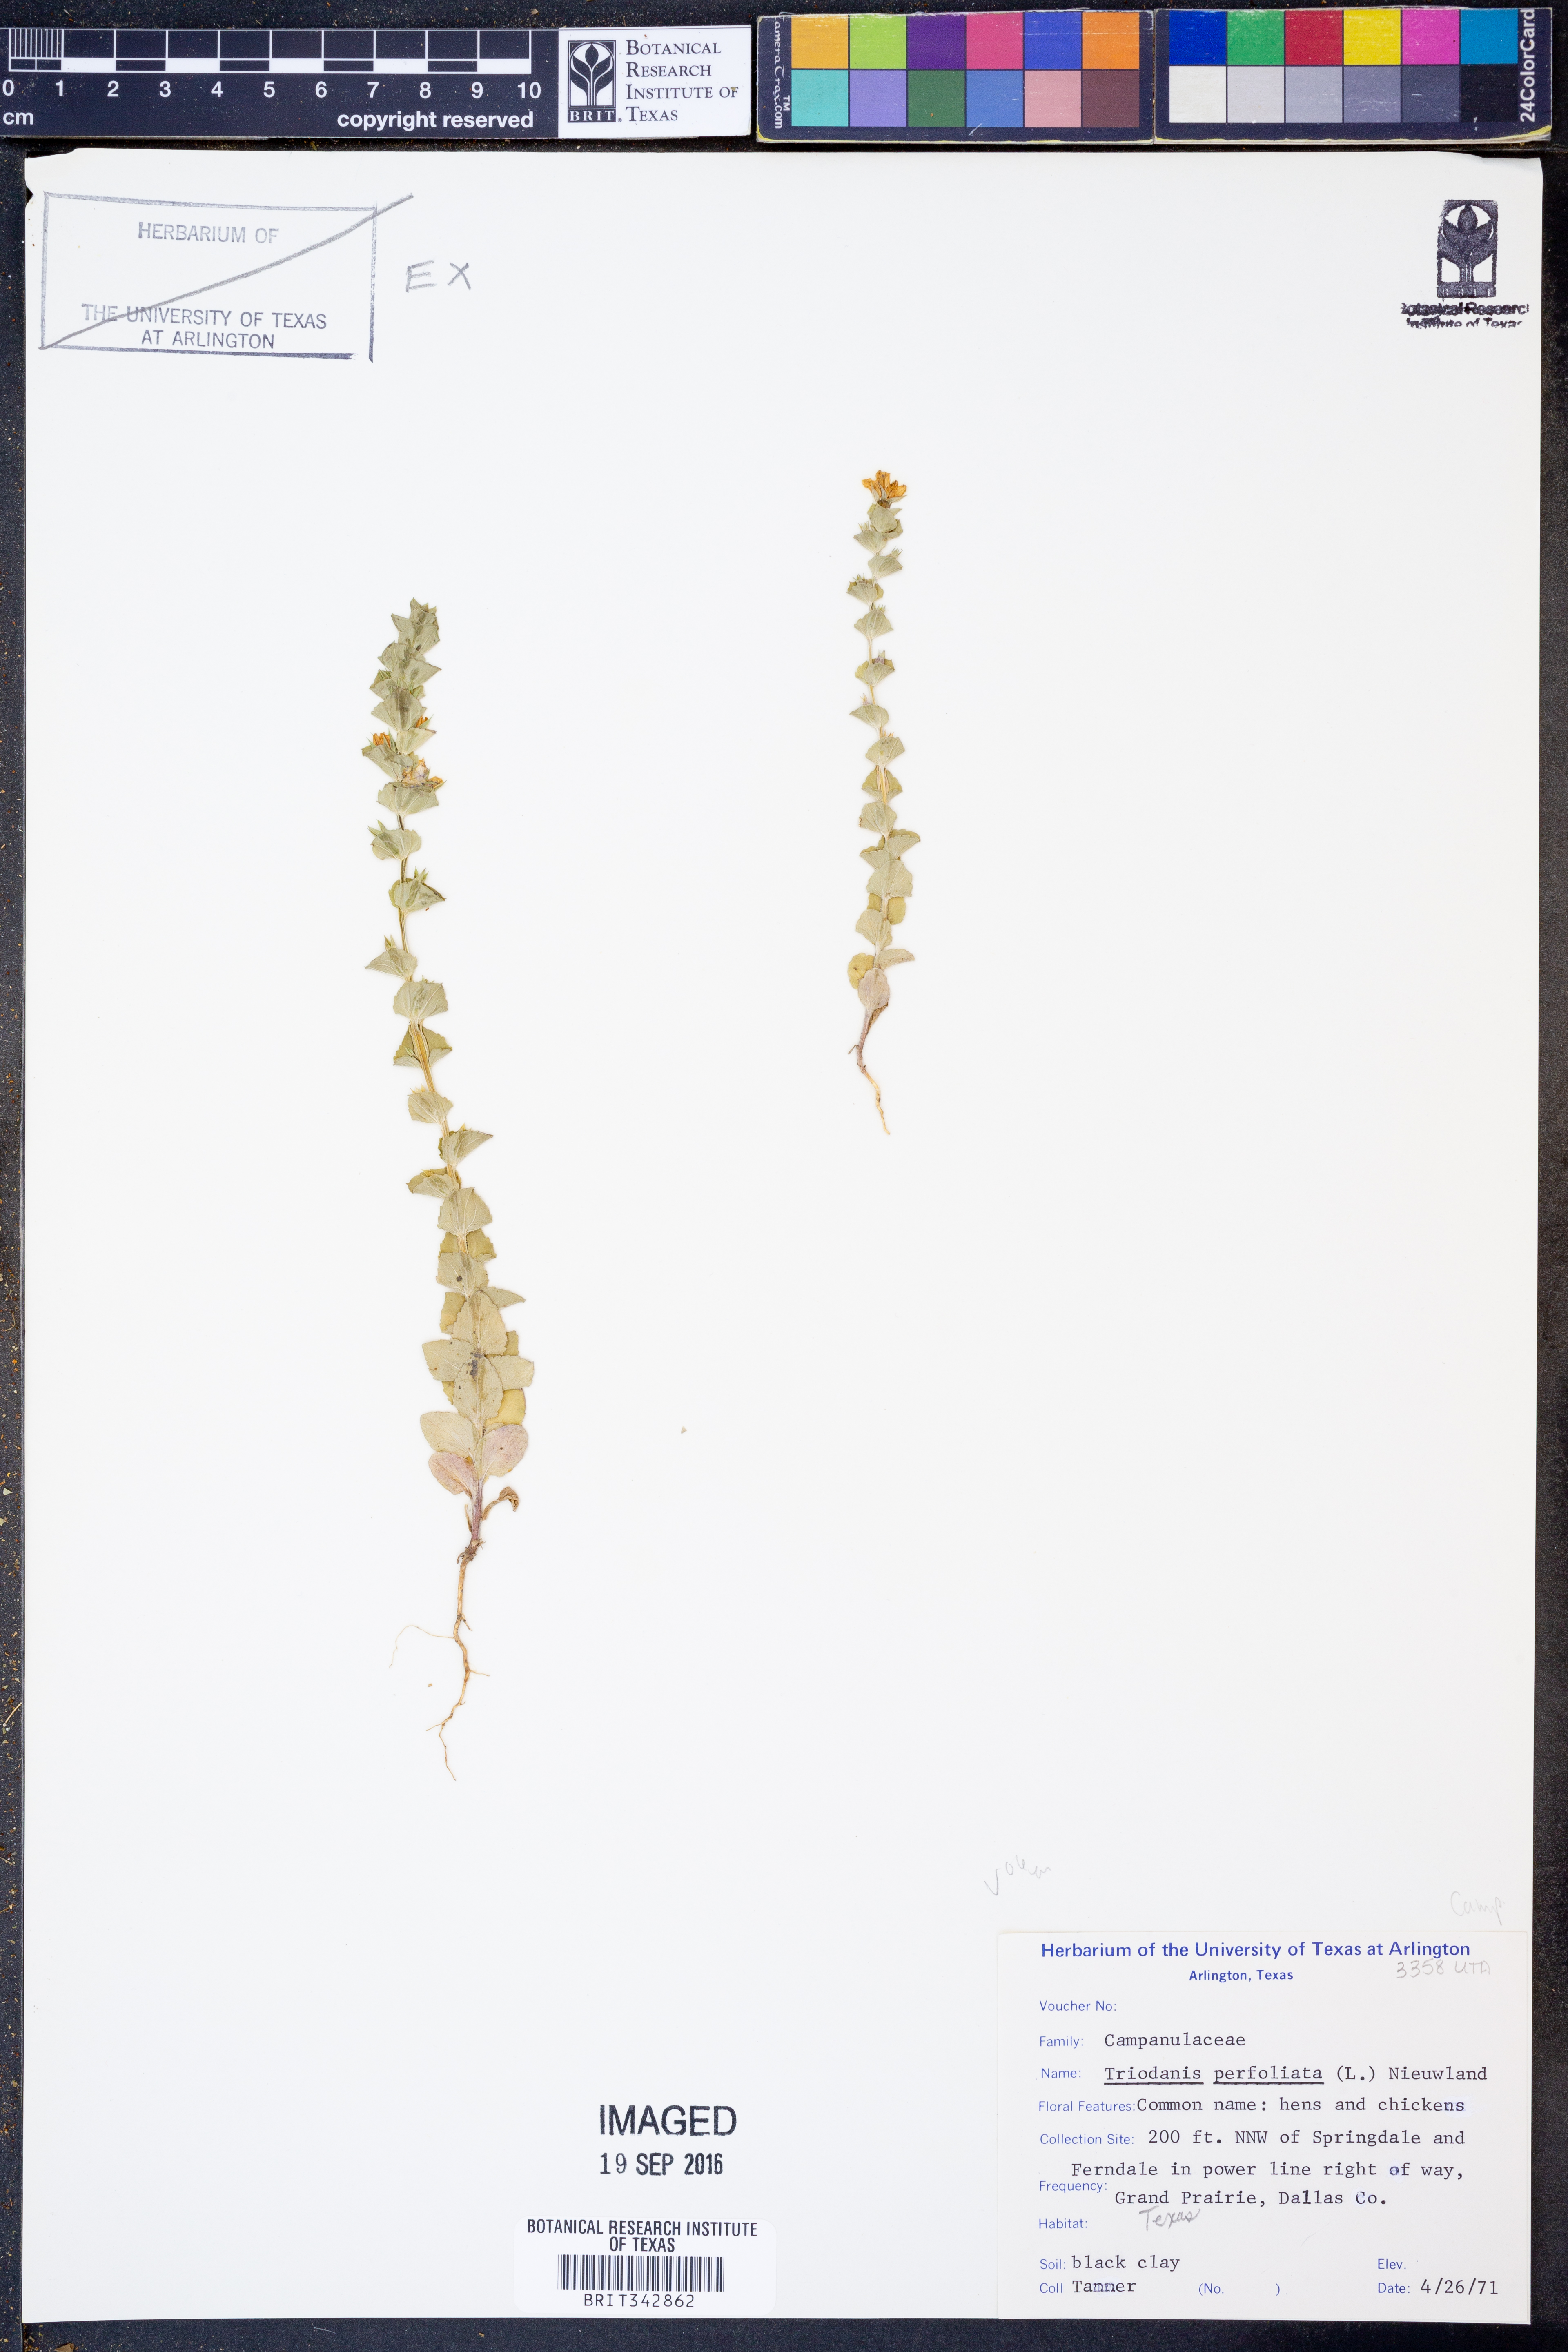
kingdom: Plantae
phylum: Tracheophyta
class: Magnoliopsida
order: Asterales
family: Campanulaceae
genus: Triodanis
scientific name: Triodanis perfoliata
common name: Clasping venus' looking-glass
